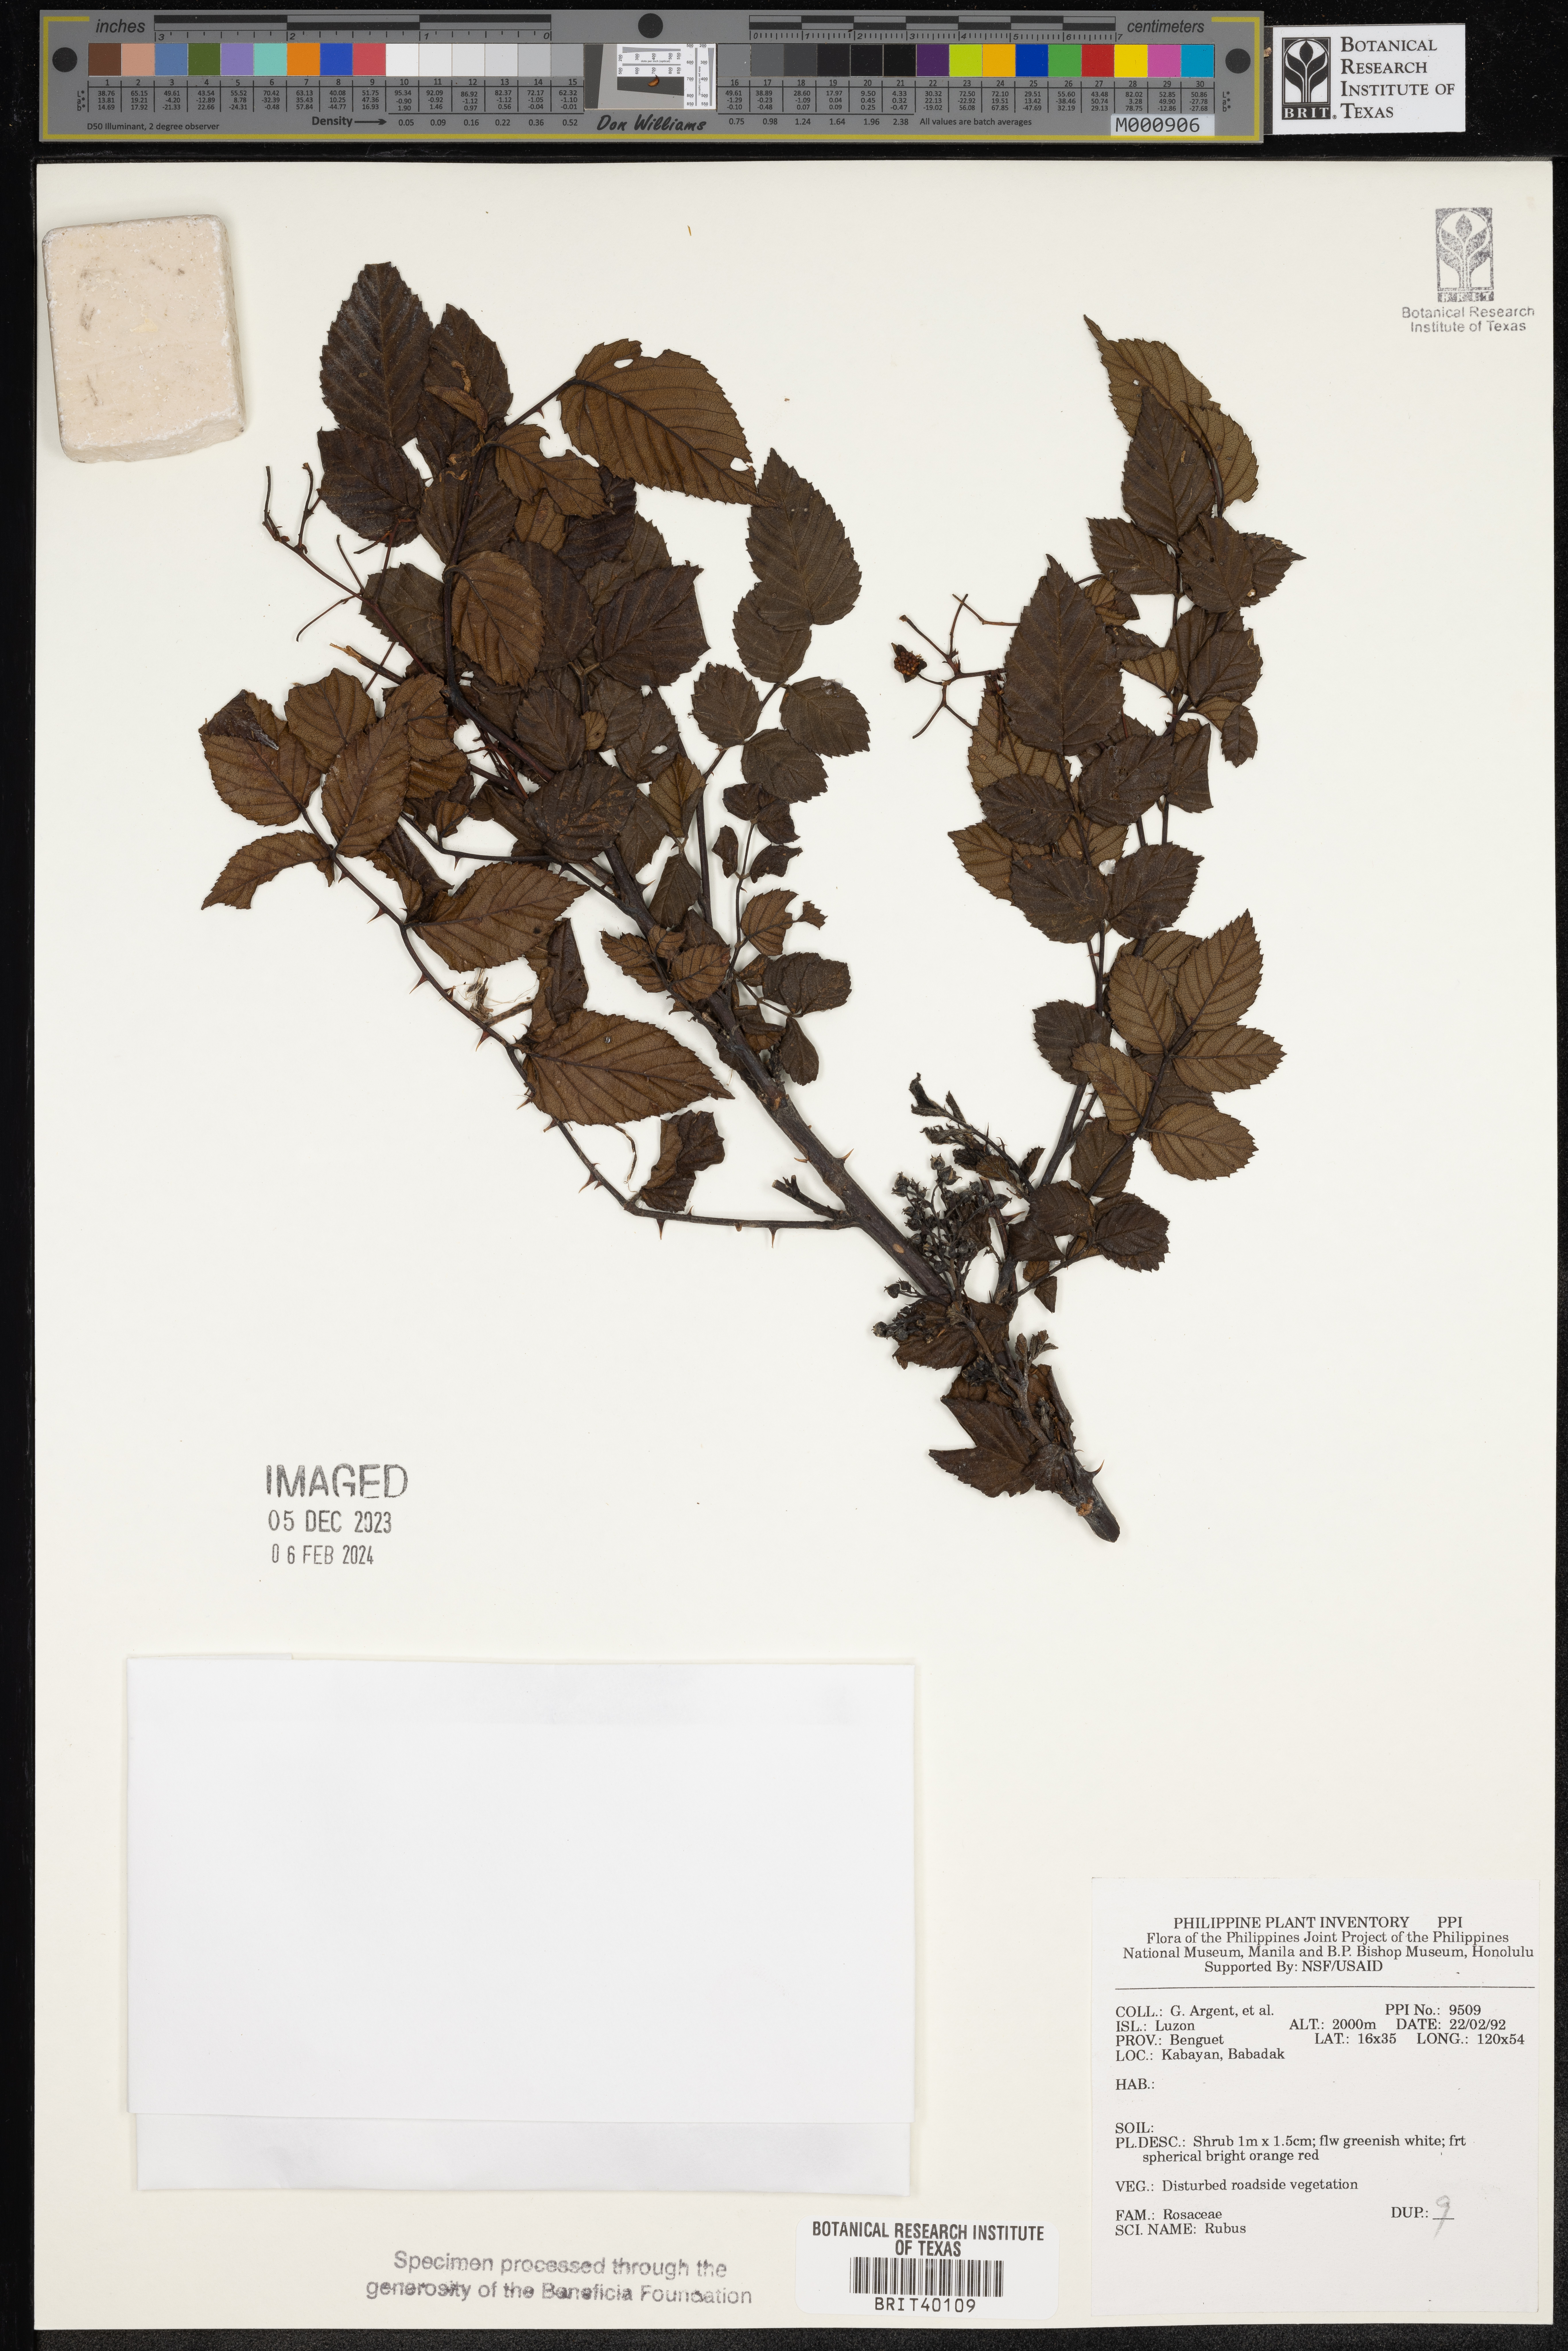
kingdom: Plantae
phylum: Tracheophyta
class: Magnoliopsida
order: Rosales
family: Rosaceae
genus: Rubus
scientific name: Rubus
